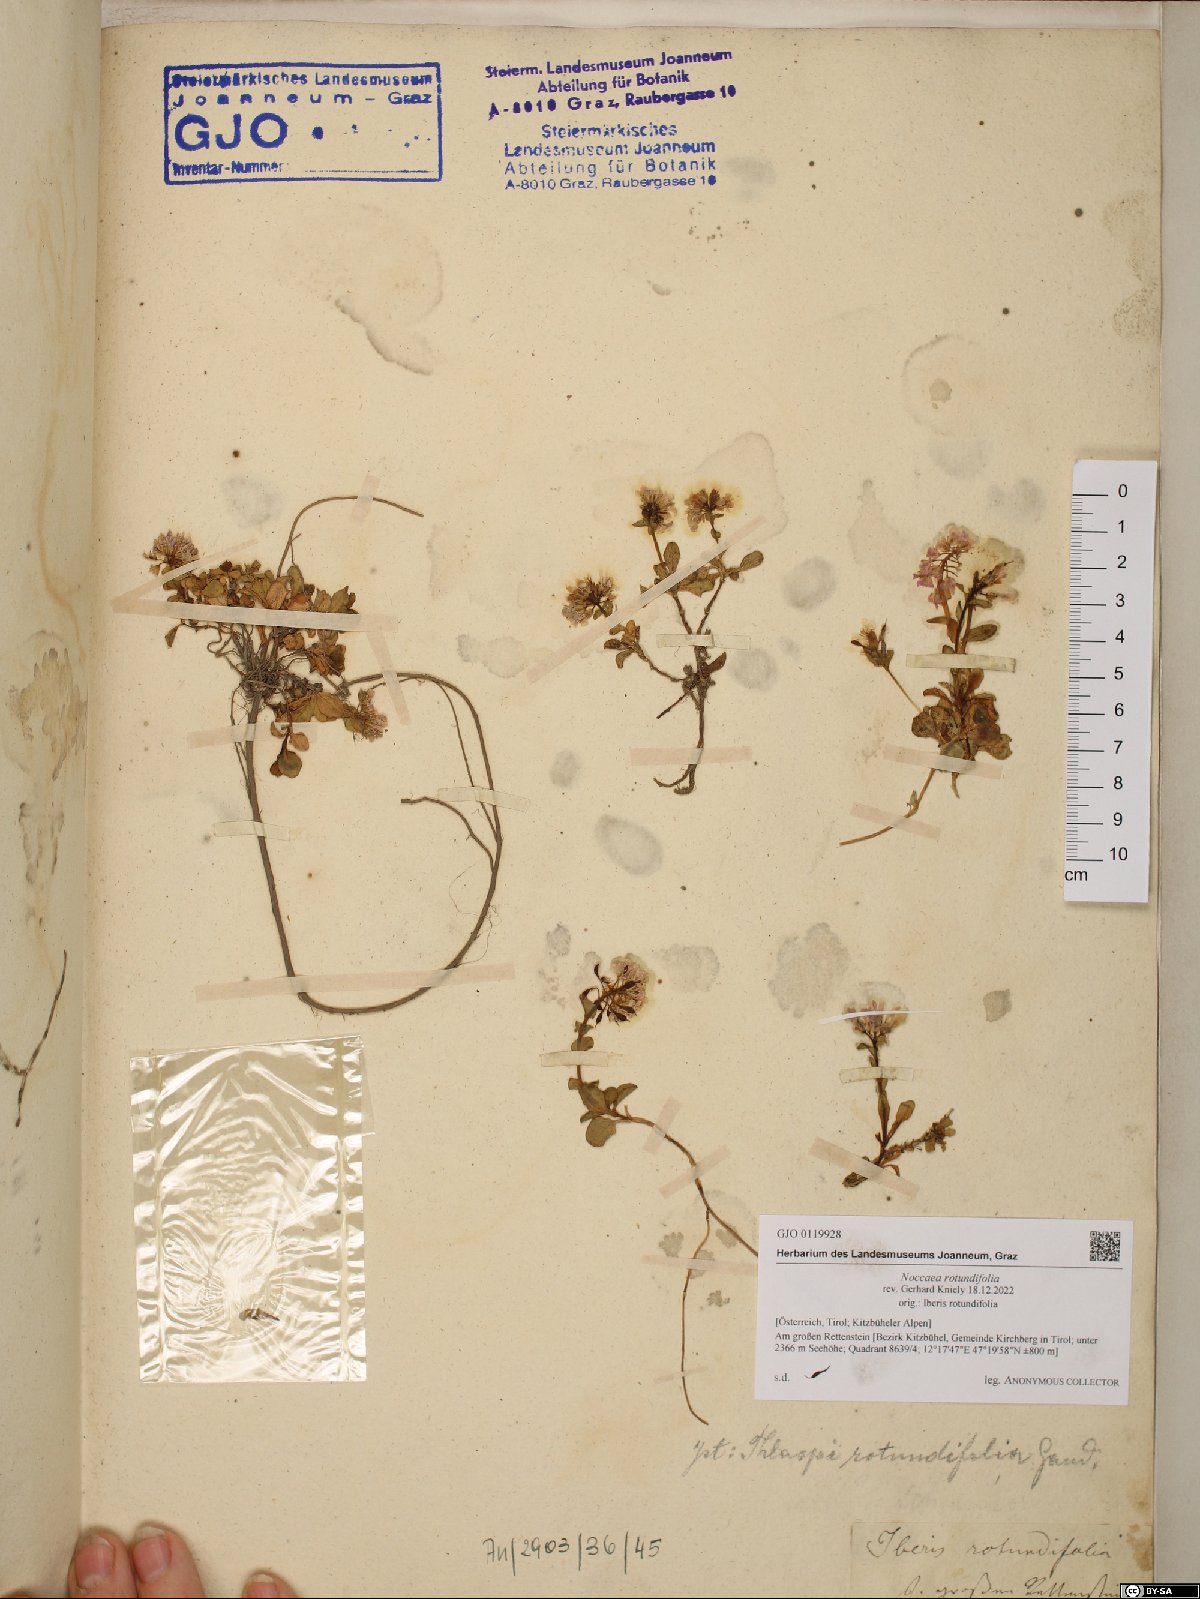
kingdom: Plantae
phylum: Tracheophyta
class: Magnoliopsida
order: Brassicales
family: Brassicaceae
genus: Noccaea
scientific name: Noccaea rotundifolia
